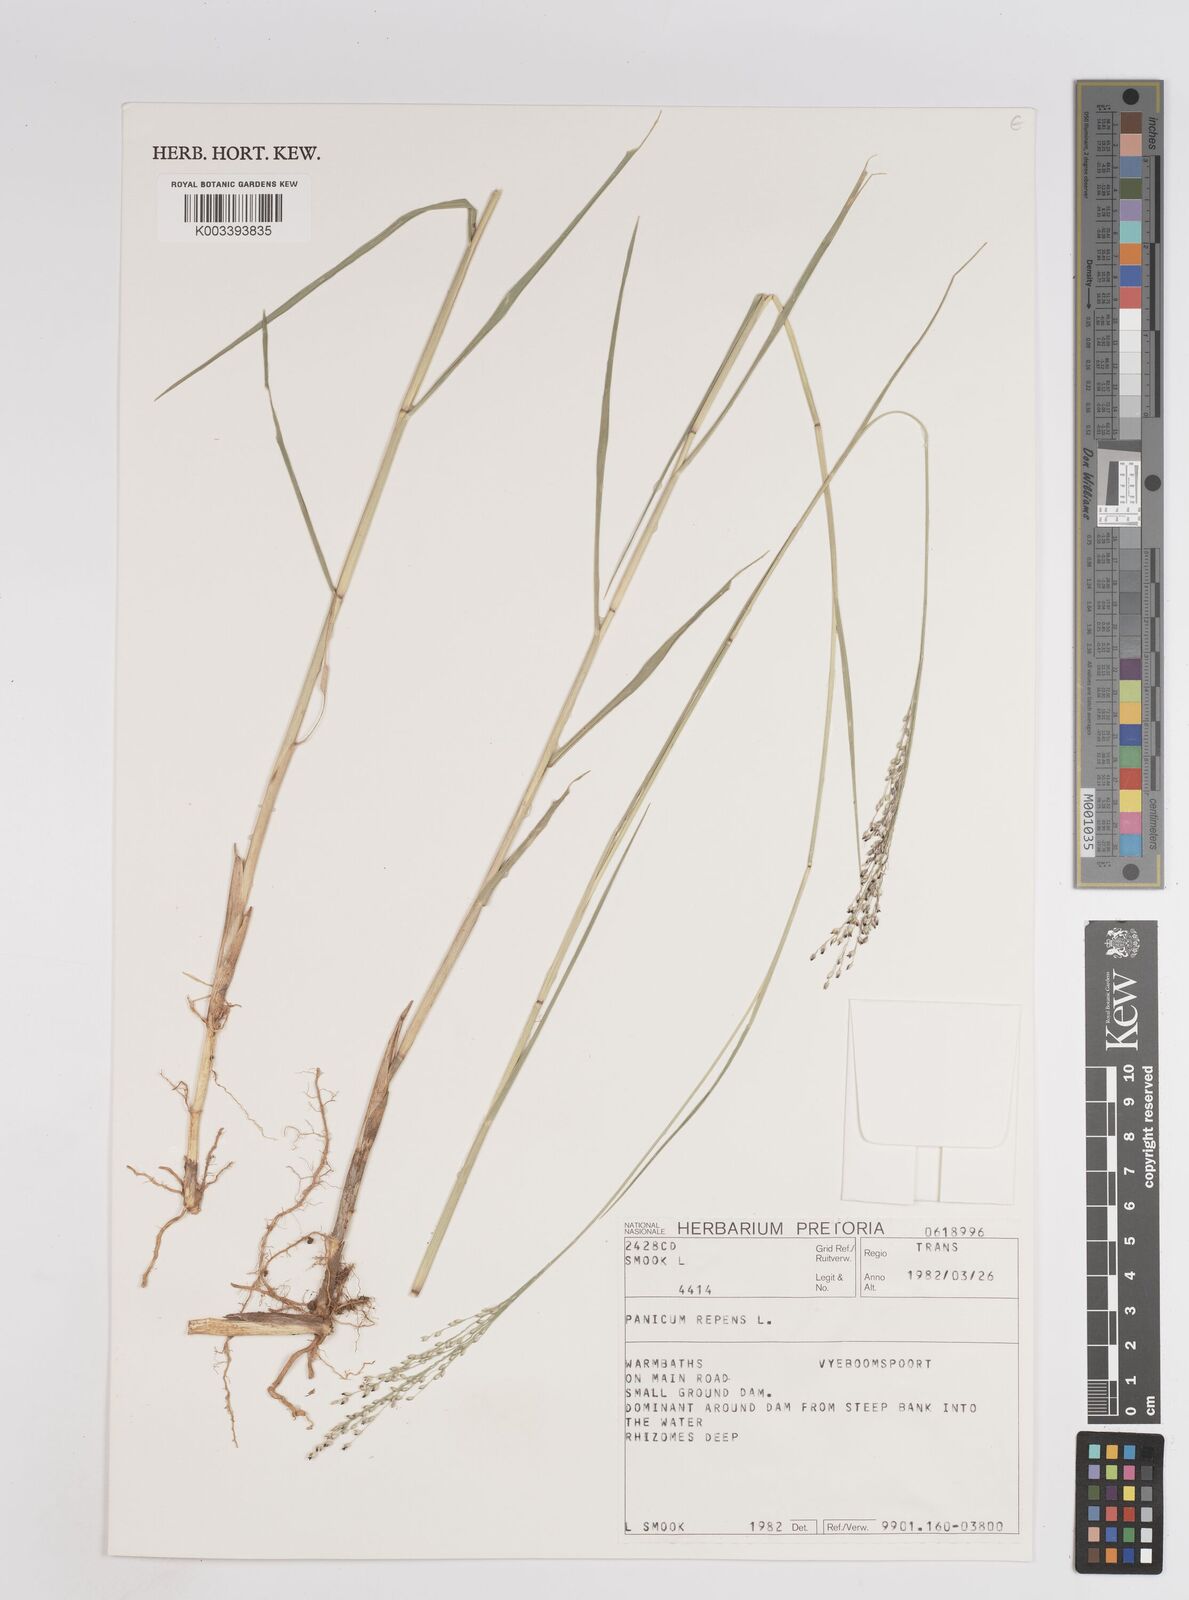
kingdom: Plantae
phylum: Tracheophyta
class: Liliopsida
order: Poales
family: Poaceae
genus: Panicum
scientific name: Panicum repens
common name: Torpedo grass
